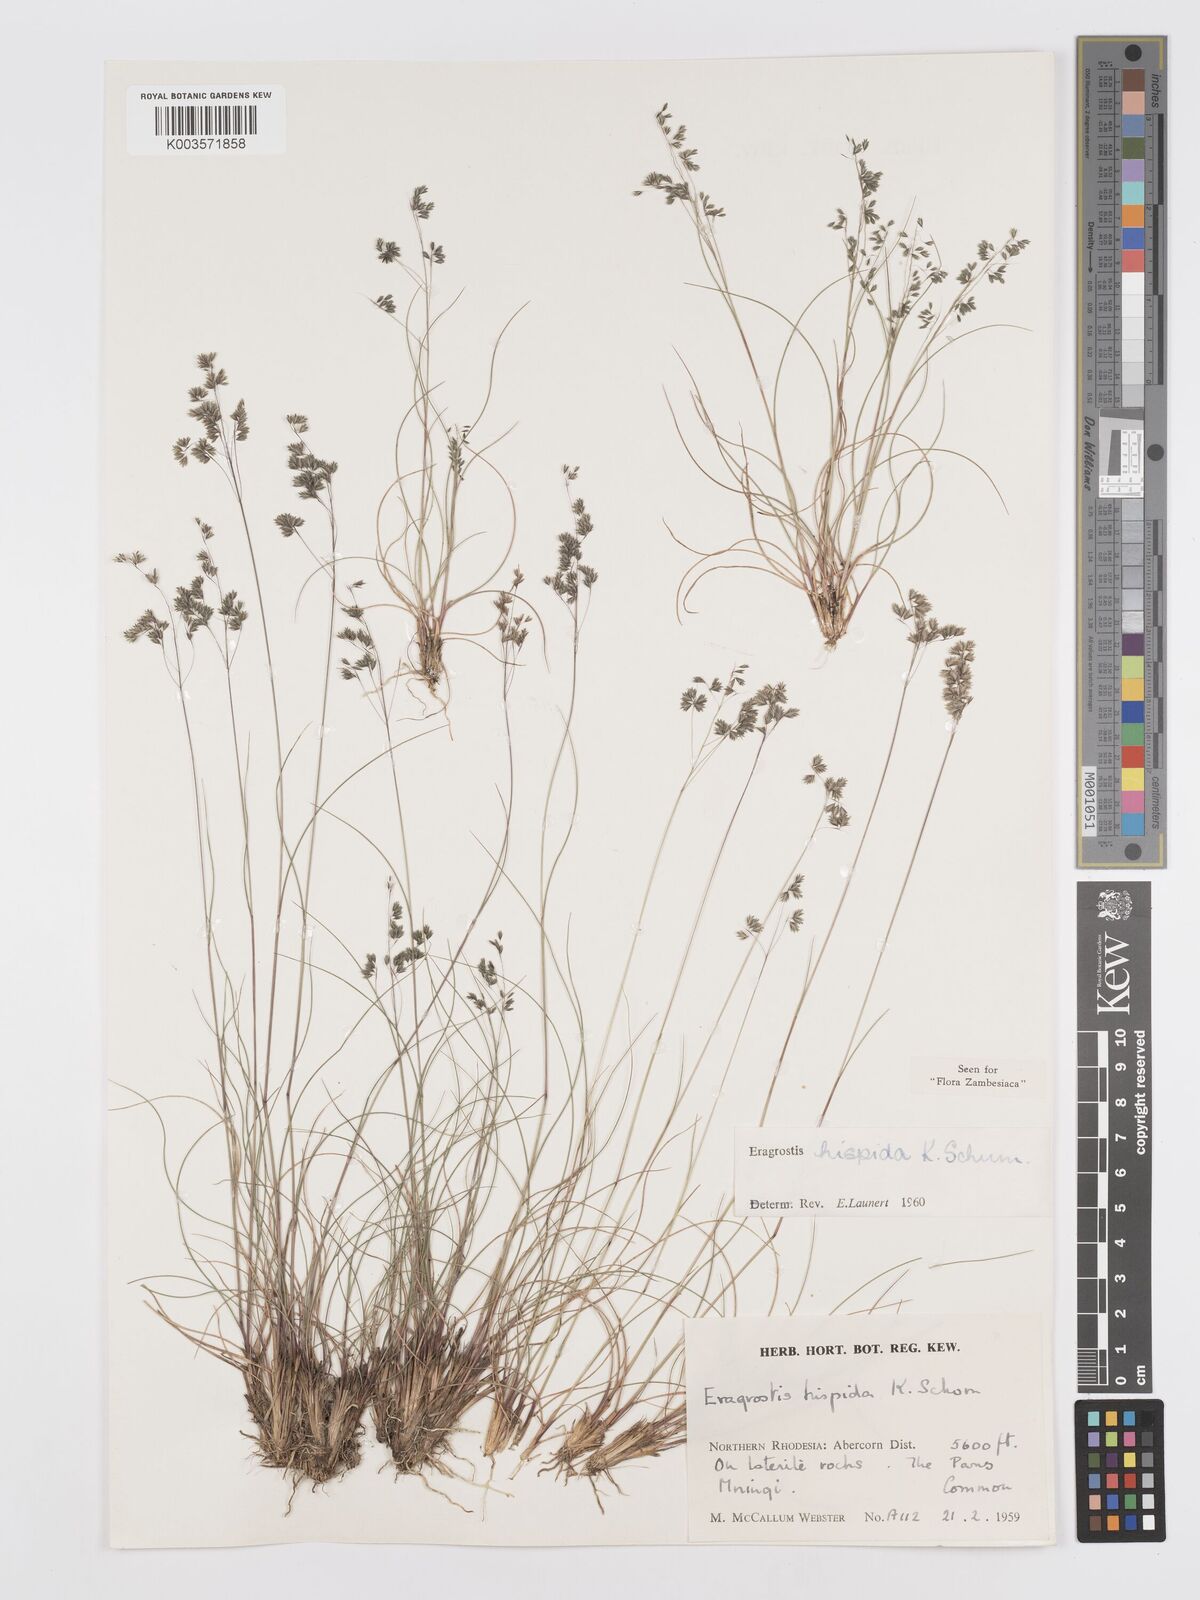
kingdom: Plantae
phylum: Tracheophyta
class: Liliopsida
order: Poales
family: Poaceae
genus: Eragrostis
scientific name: Eragrostis hispida
